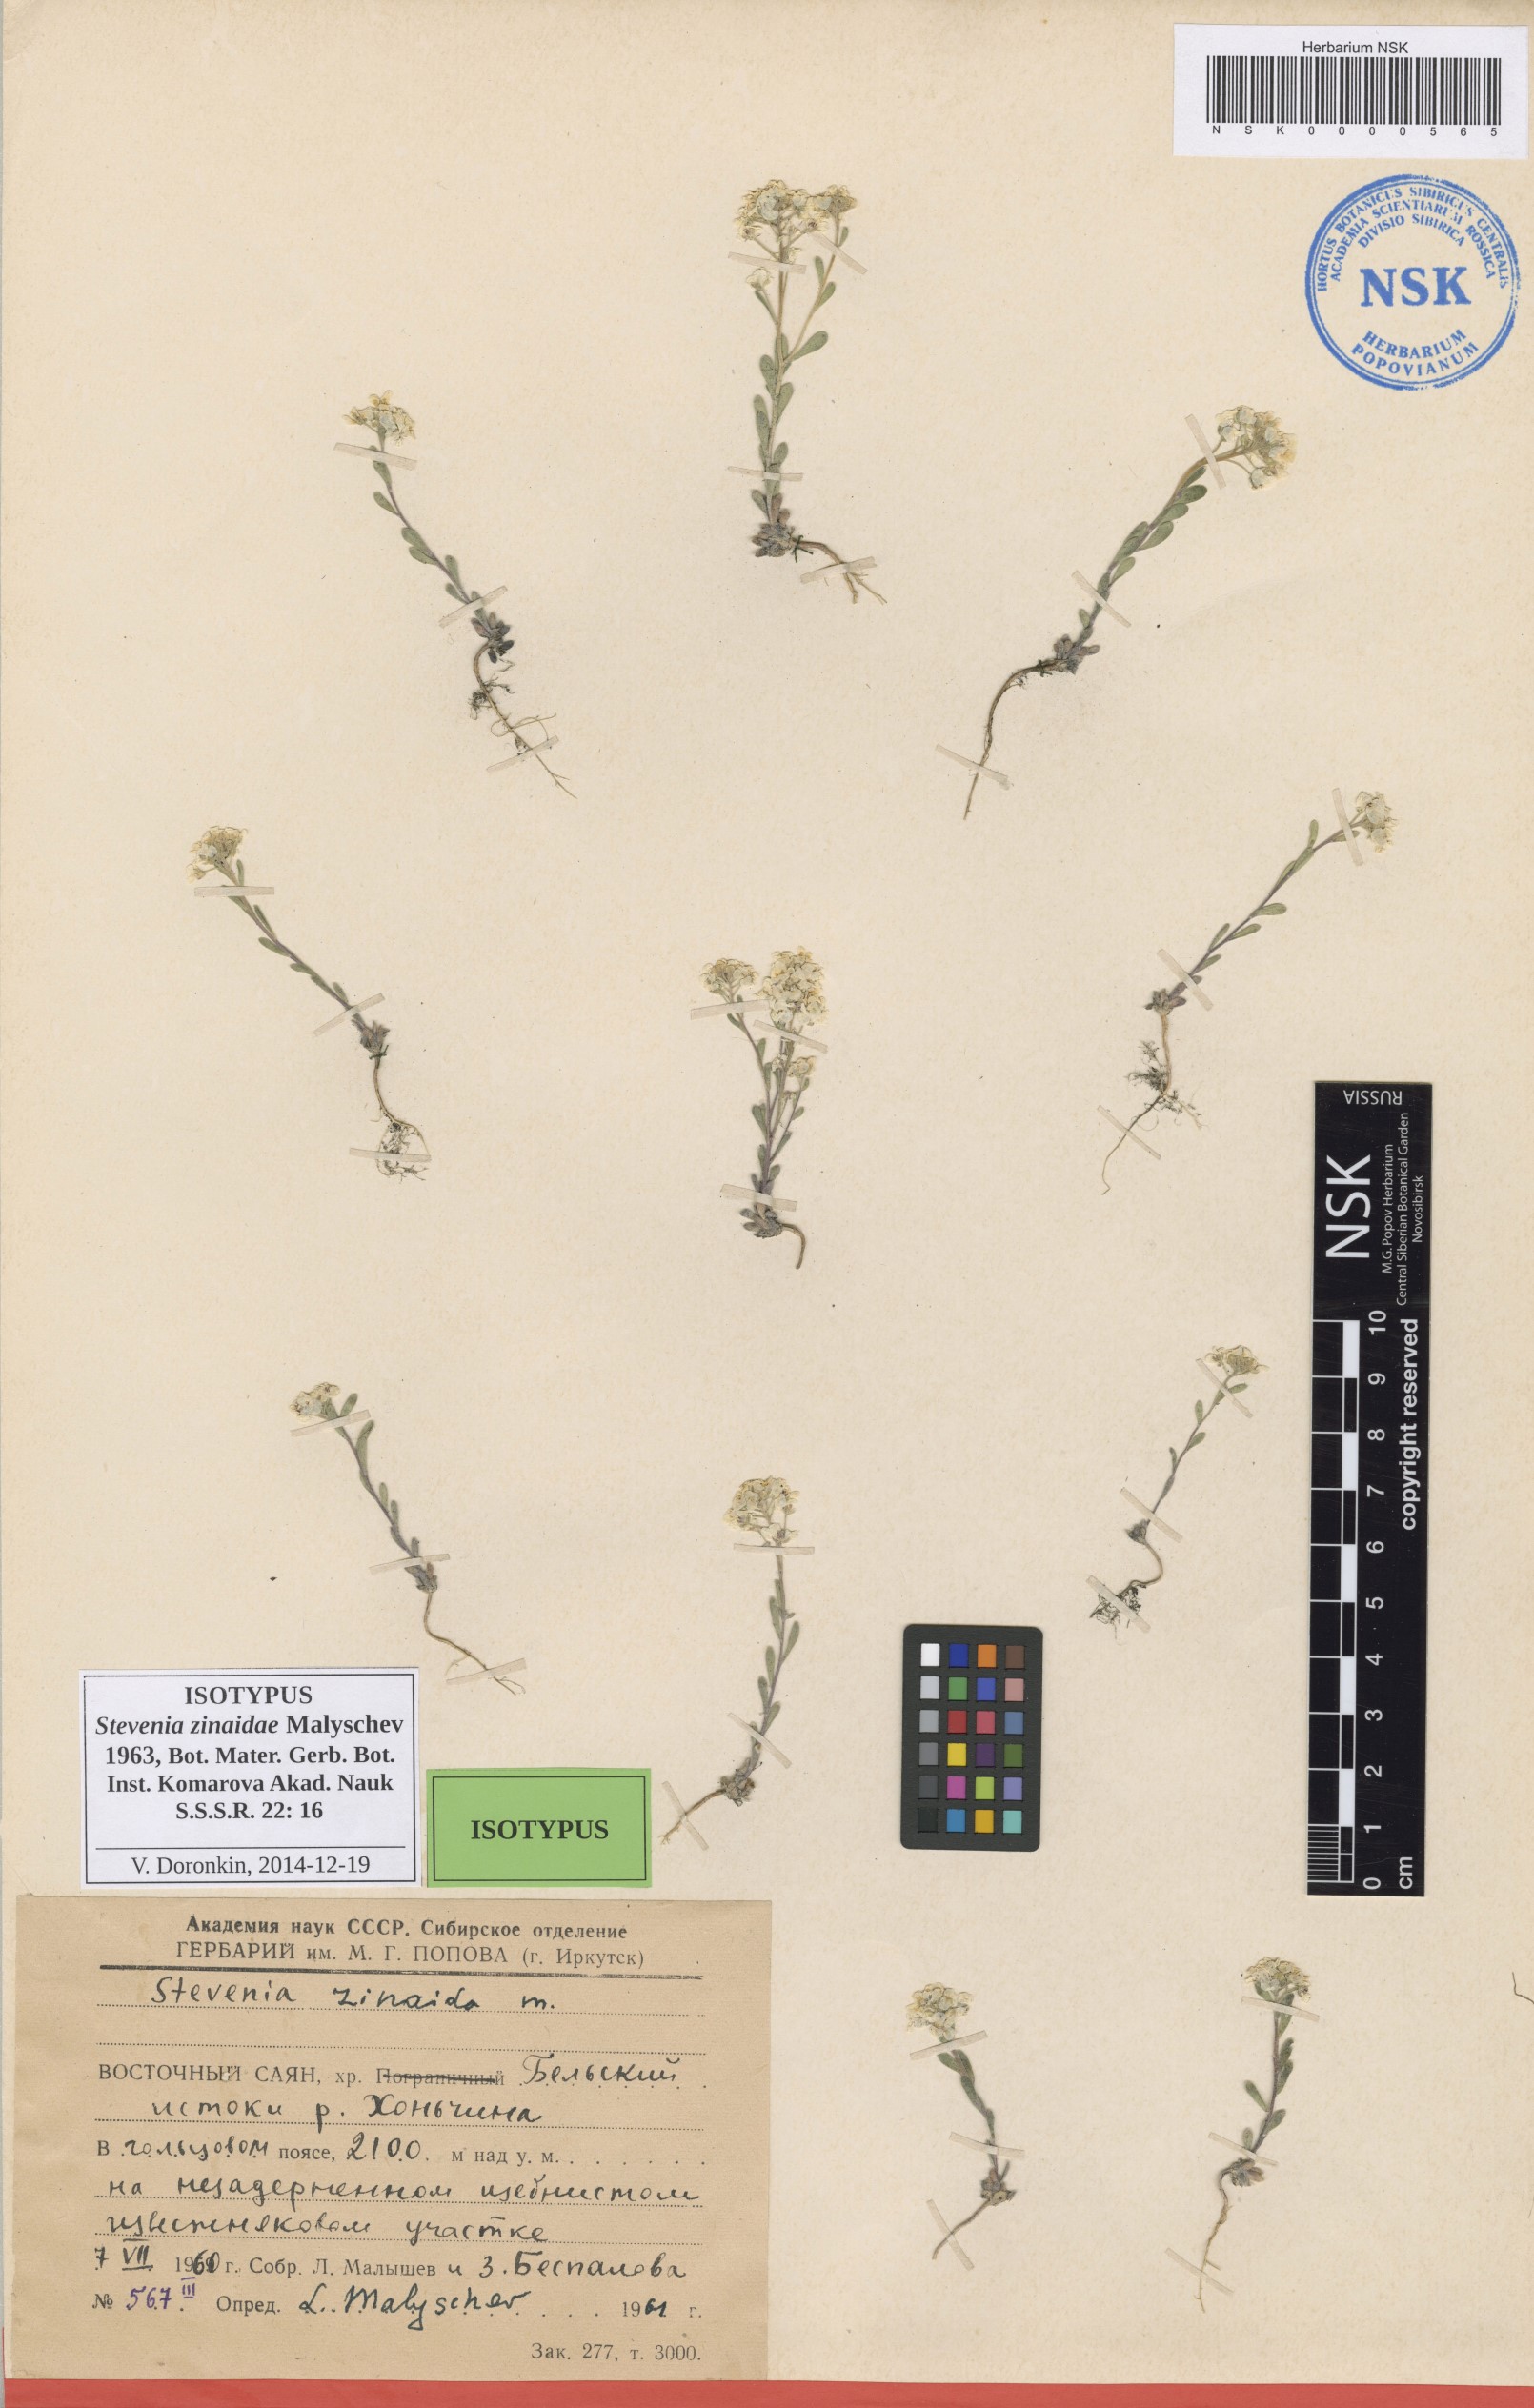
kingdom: Plantae
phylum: Tracheophyta
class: Magnoliopsida
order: Brassicales
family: Brassicaceae
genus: Stevenia
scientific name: Stevenia alyssoides
